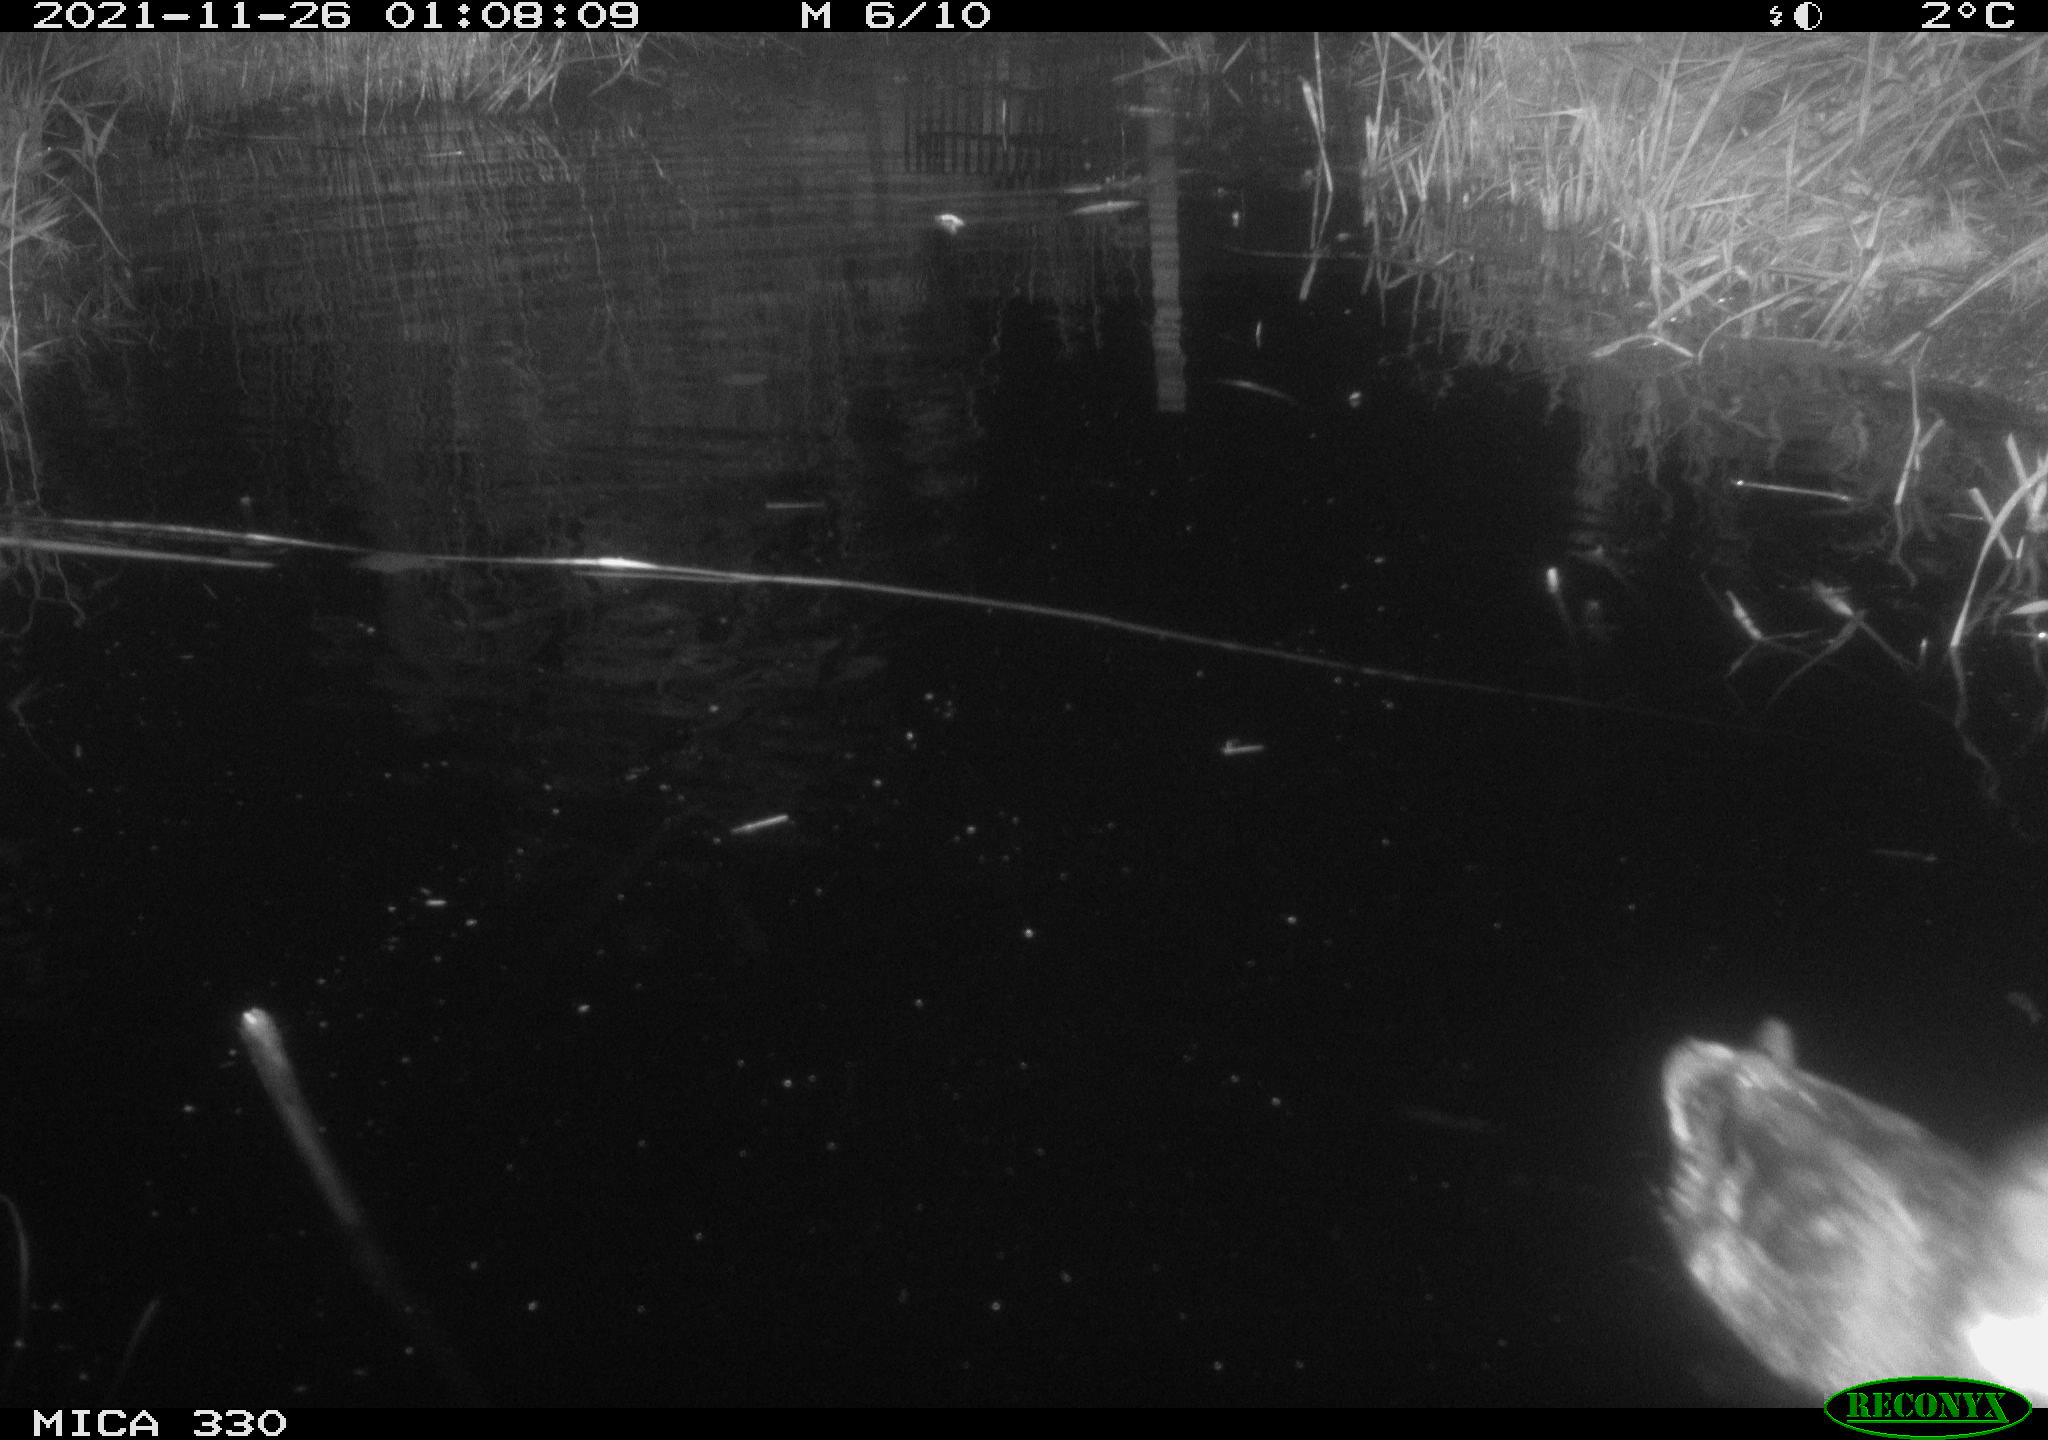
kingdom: Animalia
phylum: Chordata
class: Aves
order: Anseriformes
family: Anatidae
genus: Anas
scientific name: Anas platyrhynchos
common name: Mallard
